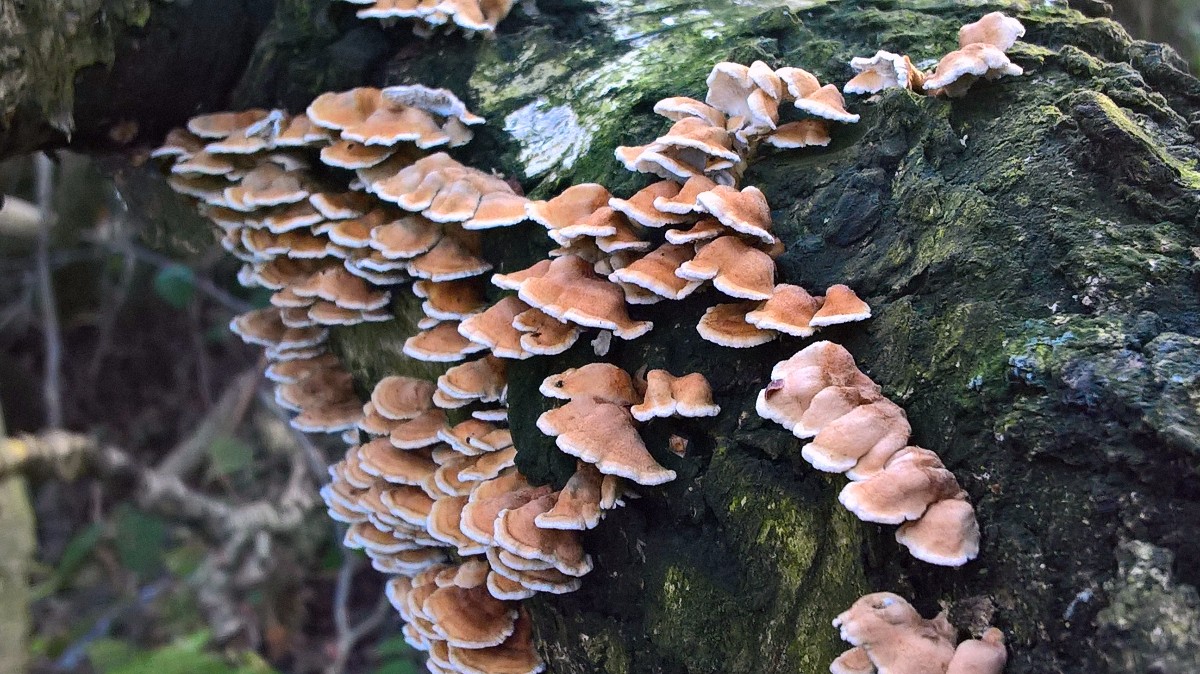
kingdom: Fungi
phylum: Basidiomycota
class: Agaricomycetes
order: Amylocorticiales
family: Amylocorticiaceae
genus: Plicaturopsis
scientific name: Plicaturopsis crispa
